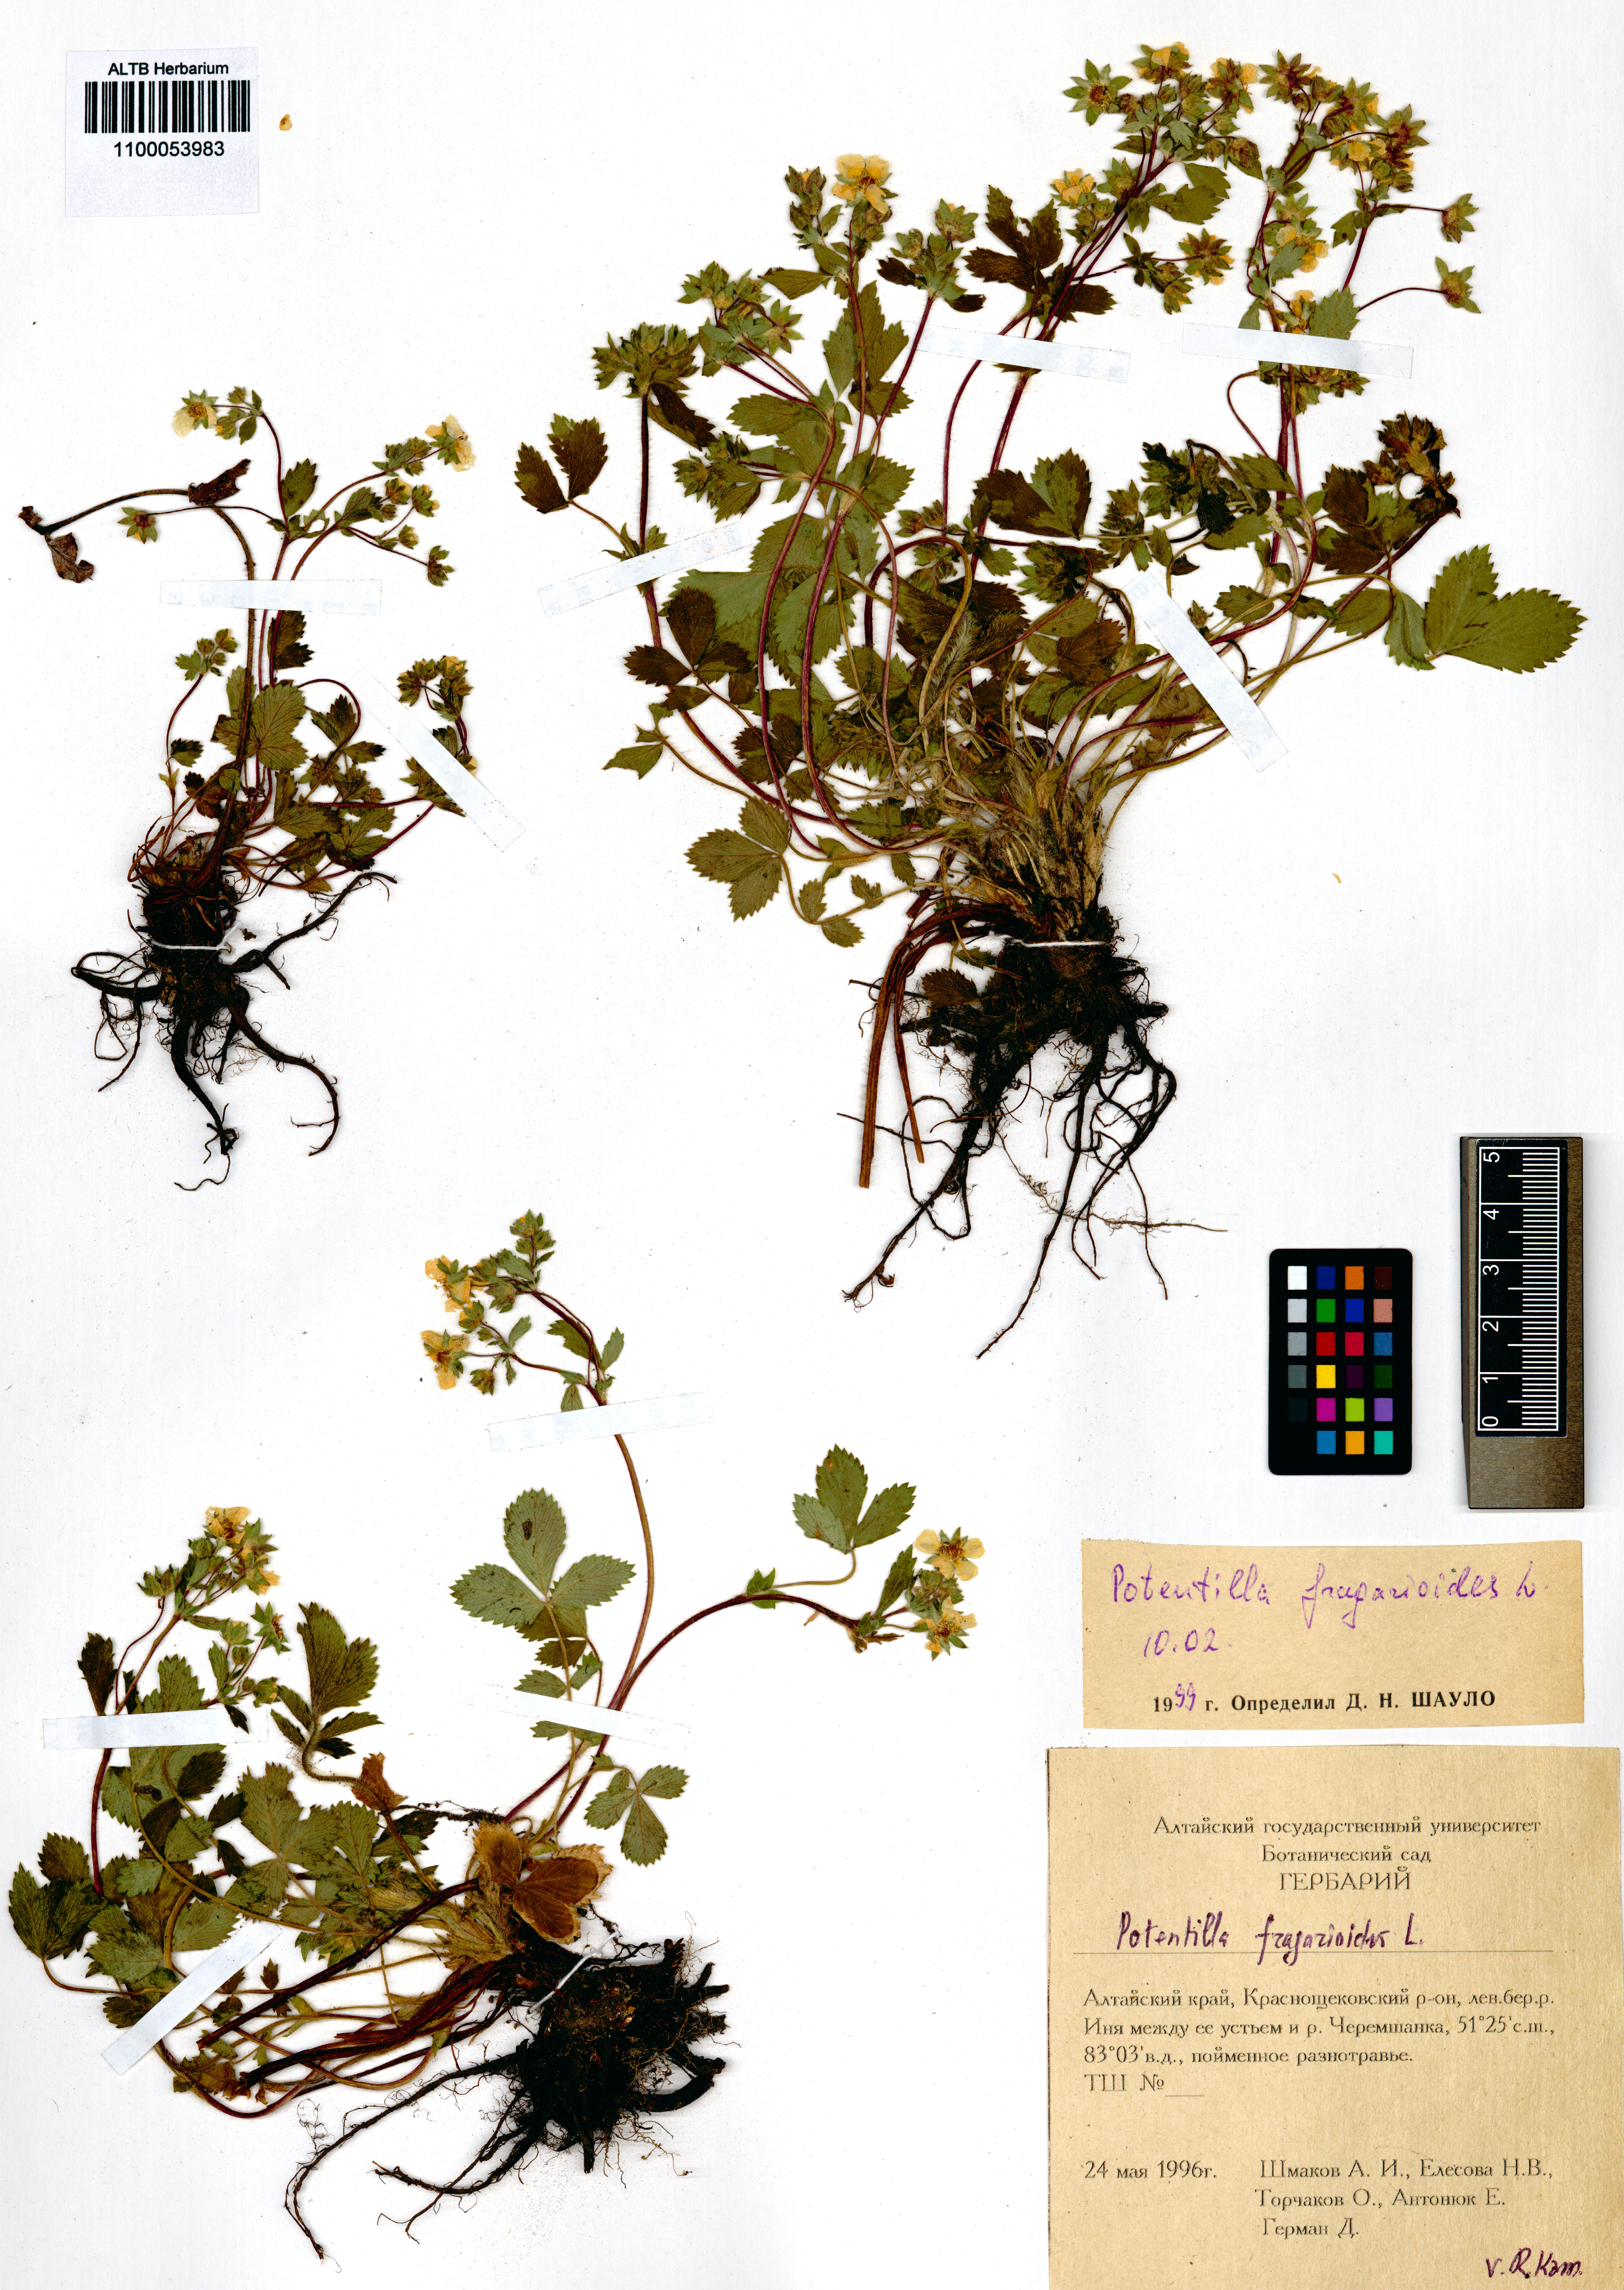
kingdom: Plantae
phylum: Tracheophyta
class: Magnoliopsida
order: Rosales
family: Rosaceae
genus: Potentilla
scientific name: Potentilla fragarioides
